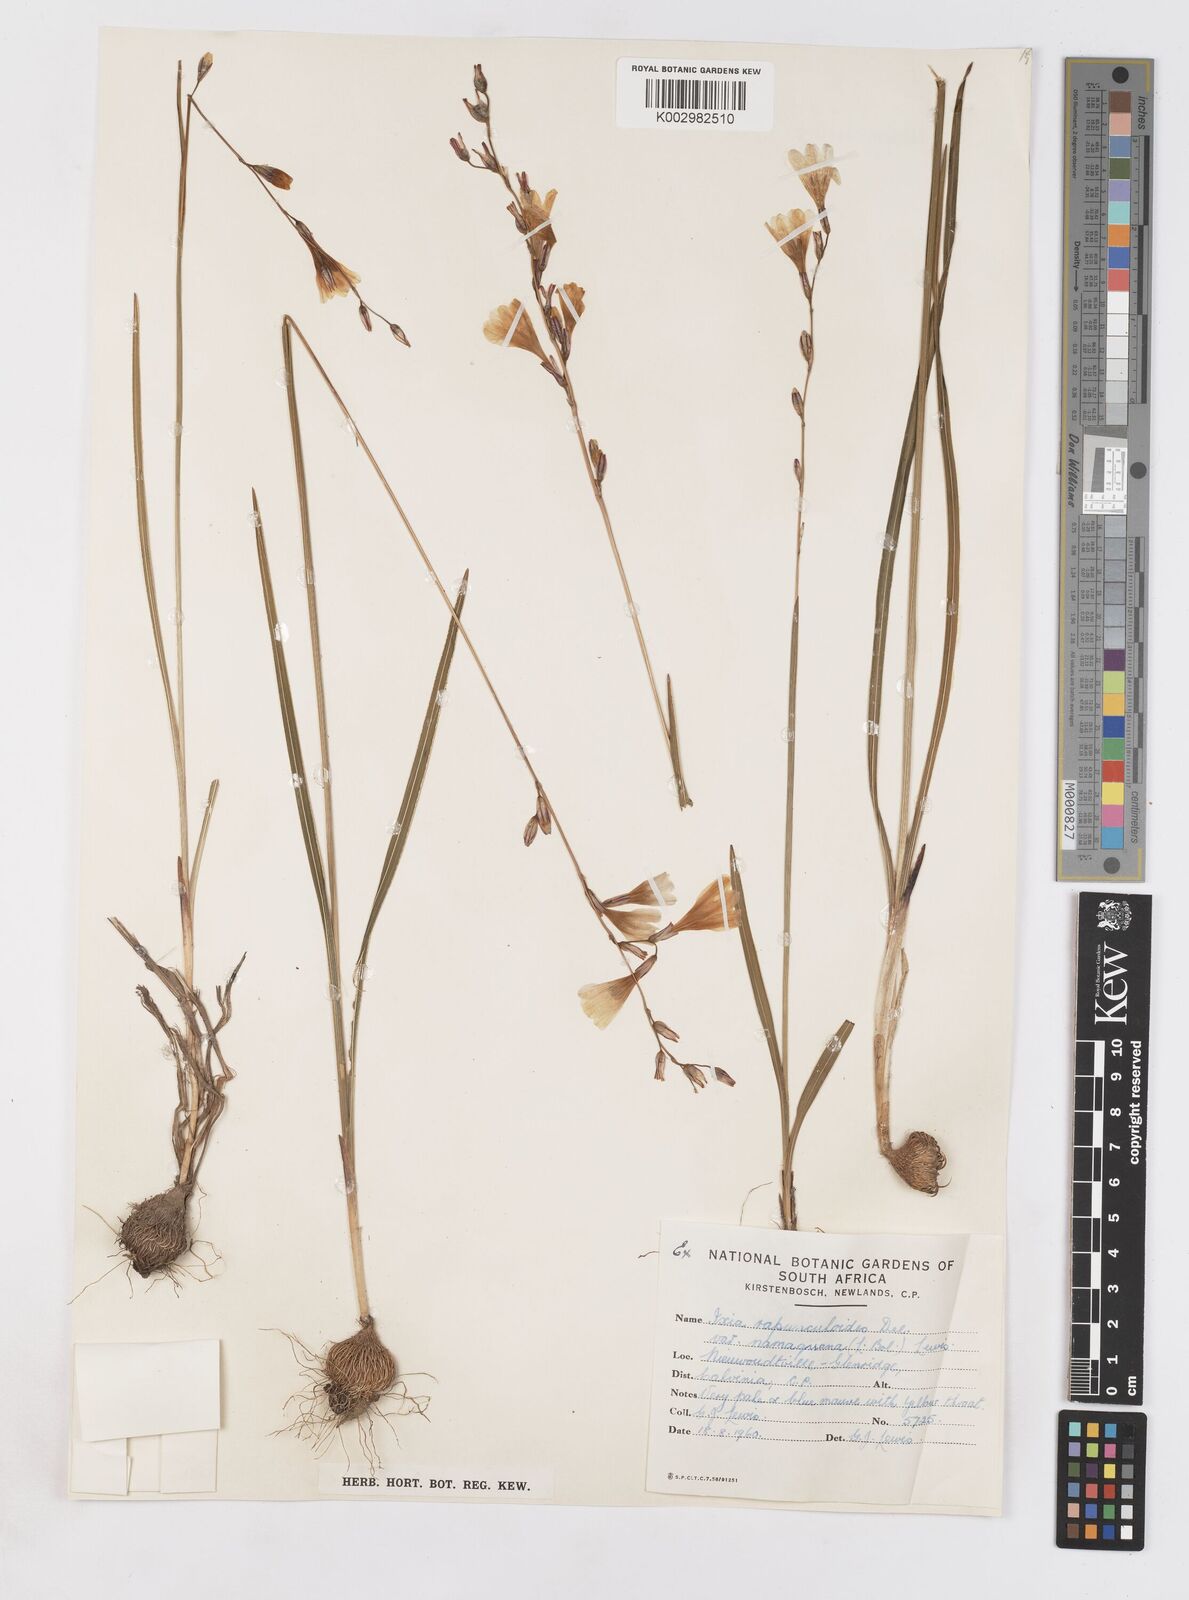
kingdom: Plantae
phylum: Tracheophyta
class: Liliopsida
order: Asparagales
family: Iridaceae
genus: Ixia
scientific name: Ixia rapunculoides
